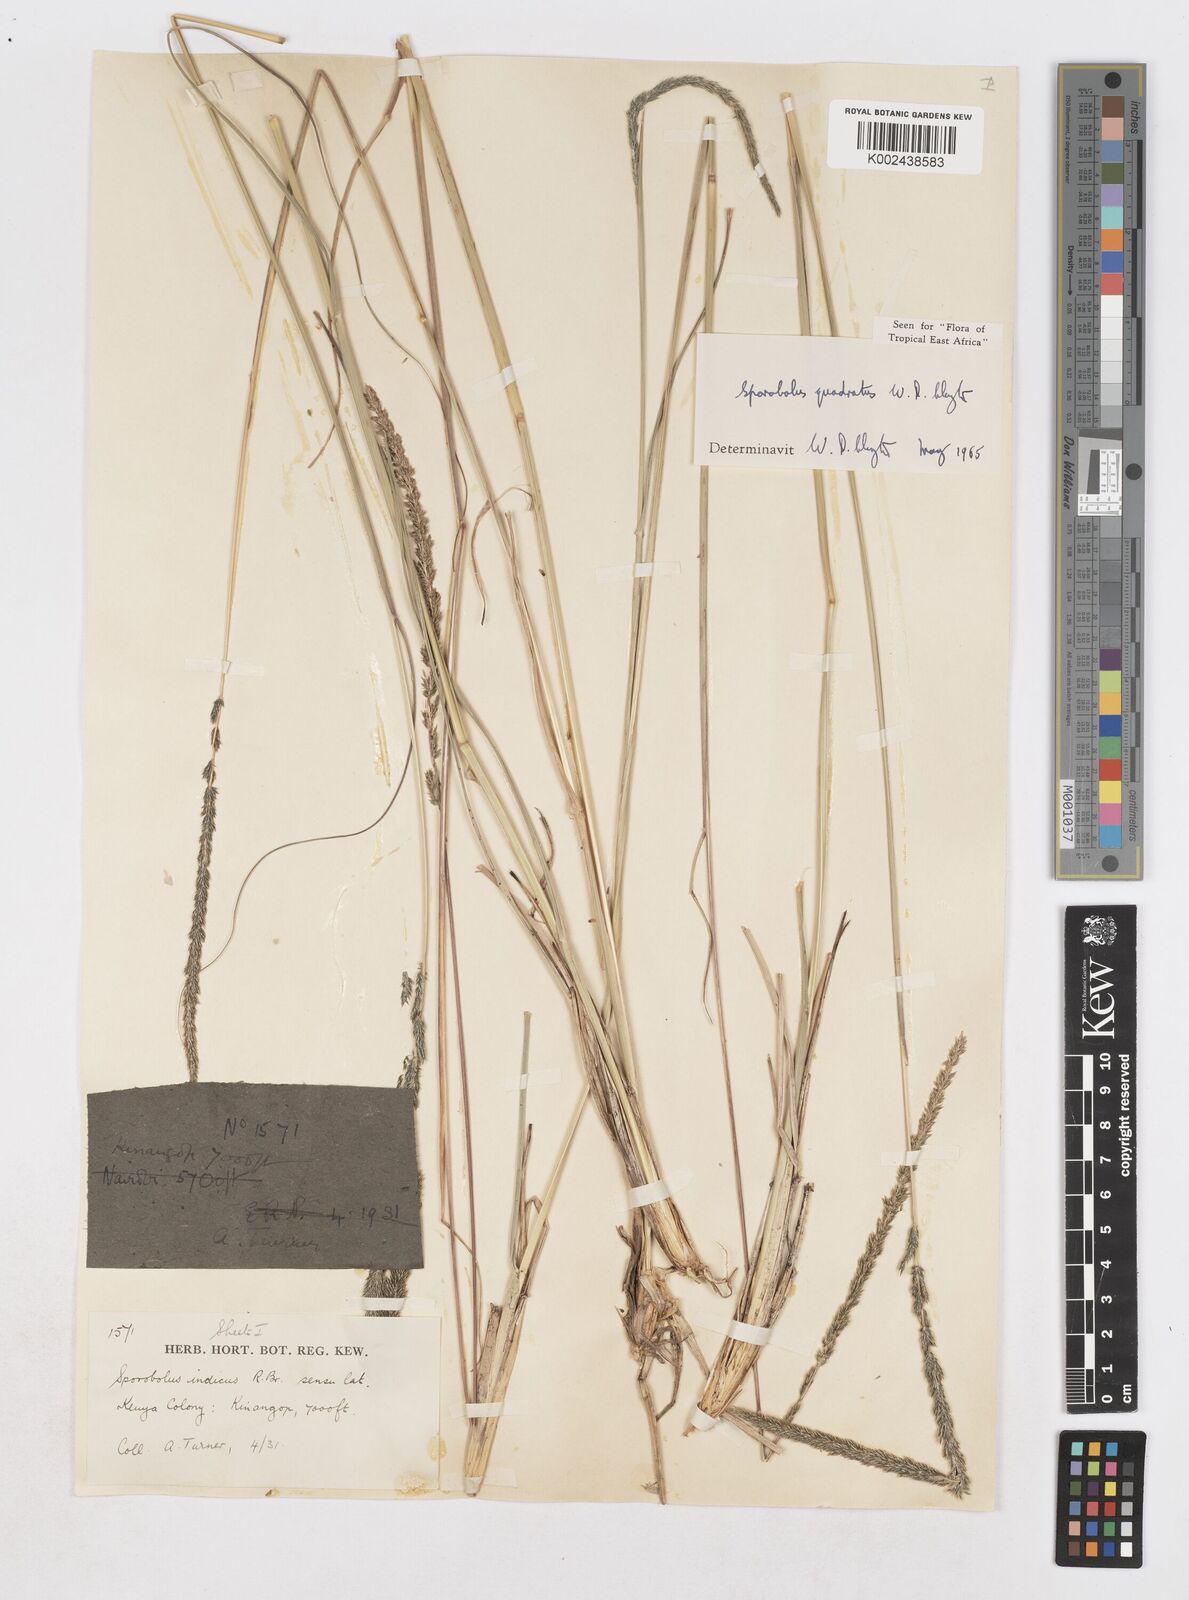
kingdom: Plantae
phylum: Tracheophyta
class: Liliopsida
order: Poales
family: Poaceae
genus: Sporobolus
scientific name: Sporobolus quadratus
